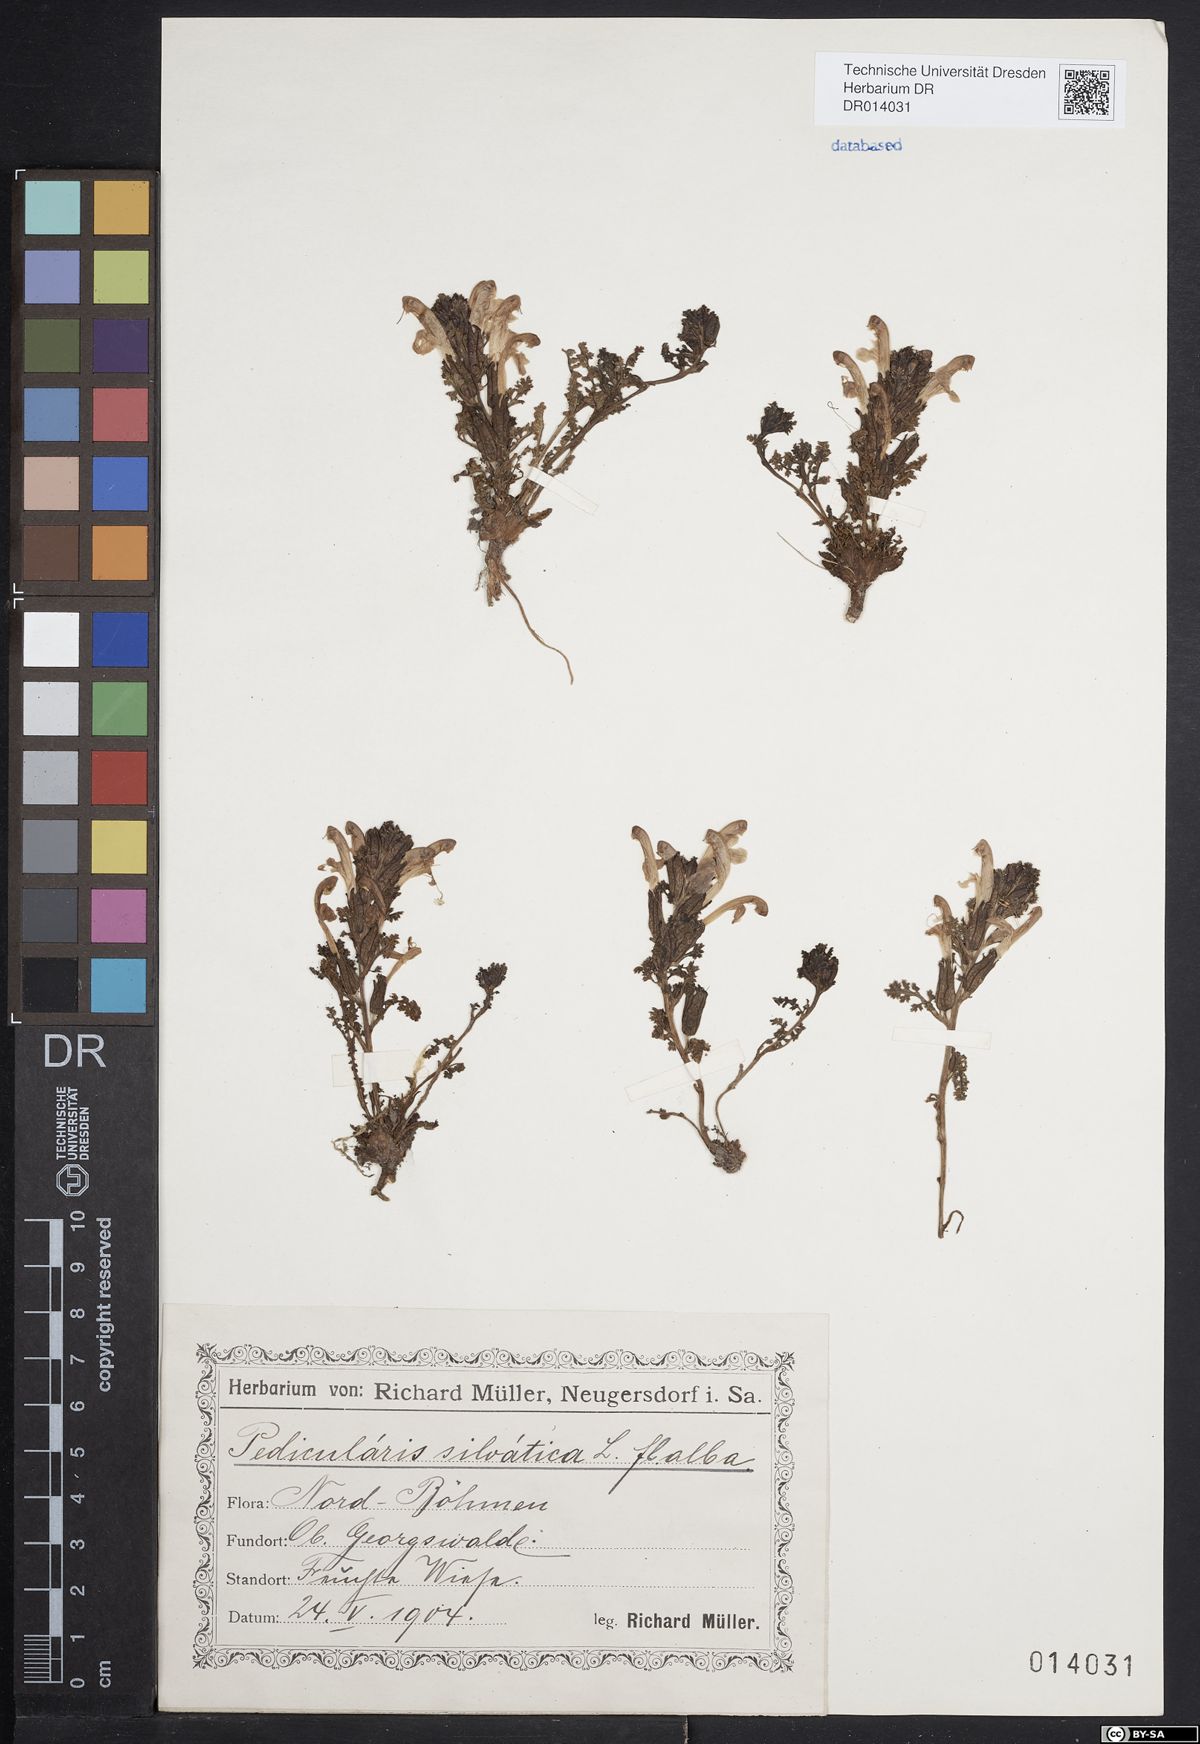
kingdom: Plantae
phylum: Tracheophyta
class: Magnoliopsida
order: Lamiales
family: Orobanchaceae
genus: Pedicularis
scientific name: Pedicularis sylvatica
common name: Lousewort
